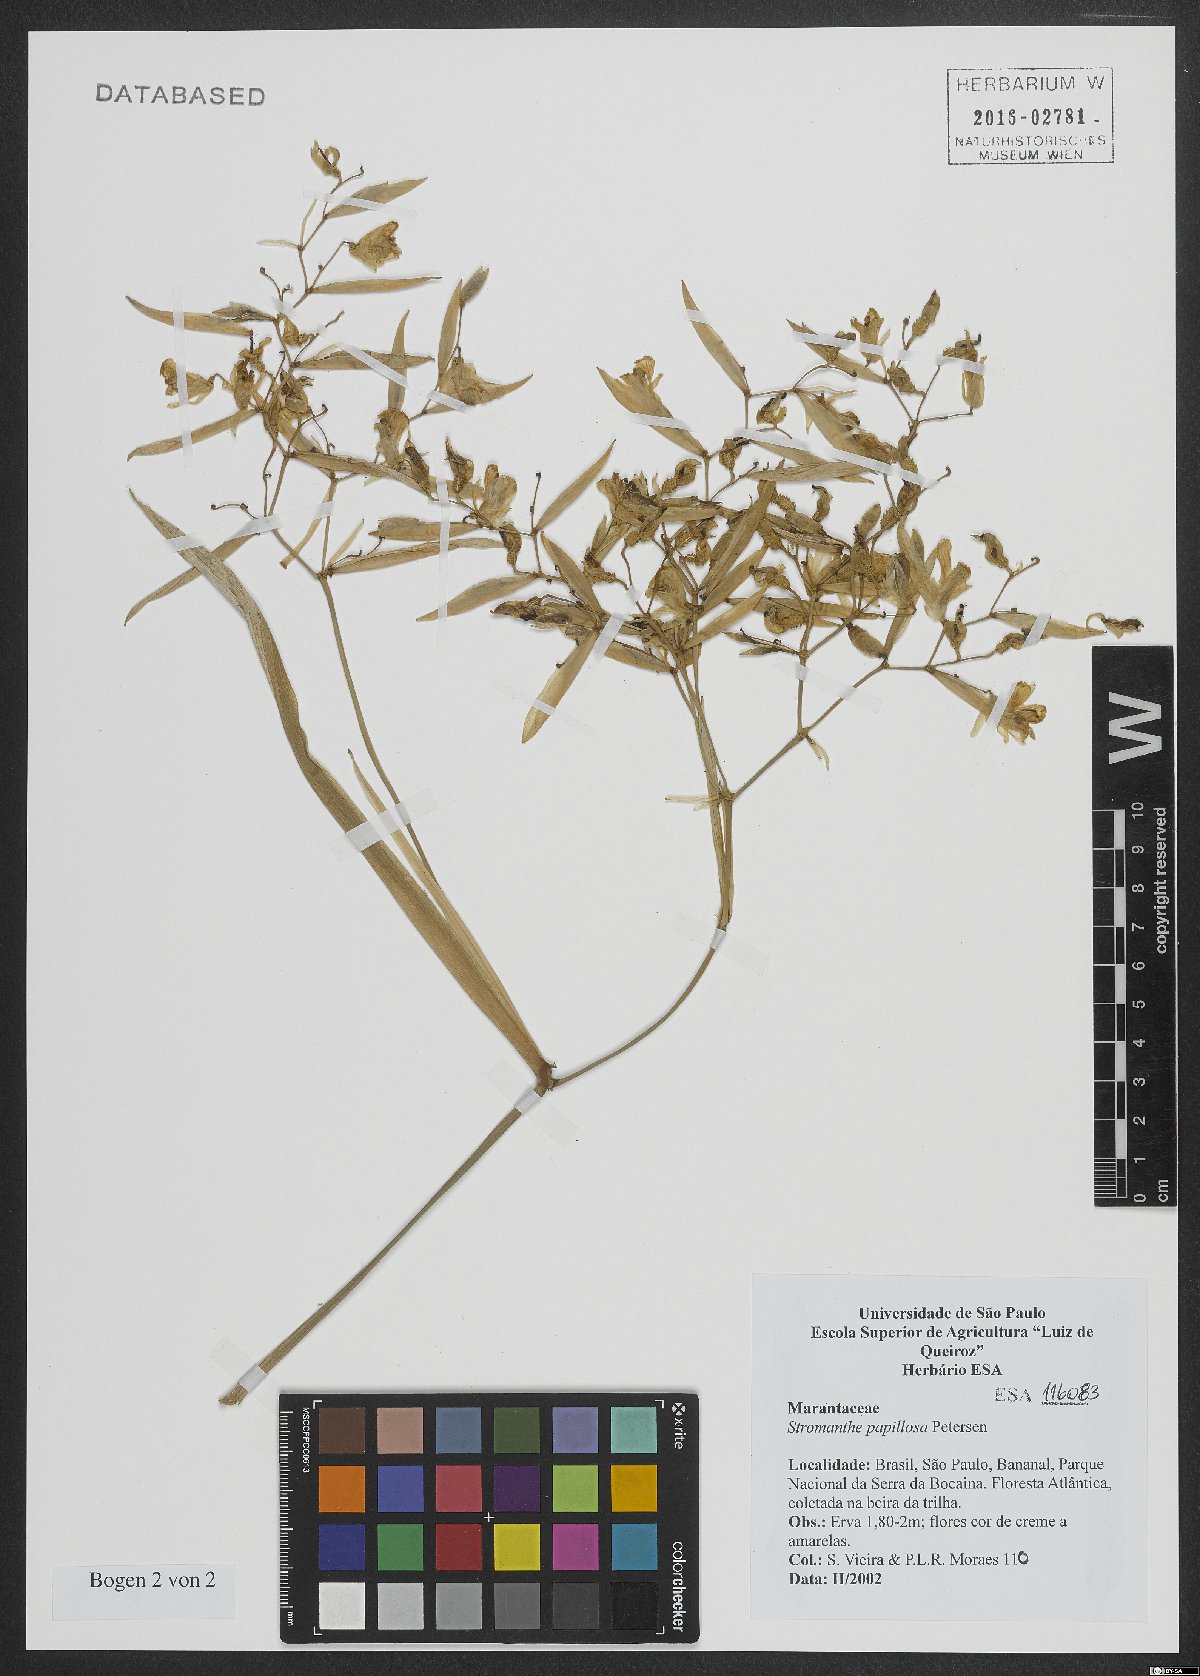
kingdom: Plantae
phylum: Tracheophyta
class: Liliopsida
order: Zingiberales
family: Marantaceae
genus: Stromanthe
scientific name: Stromanthe papillosa
